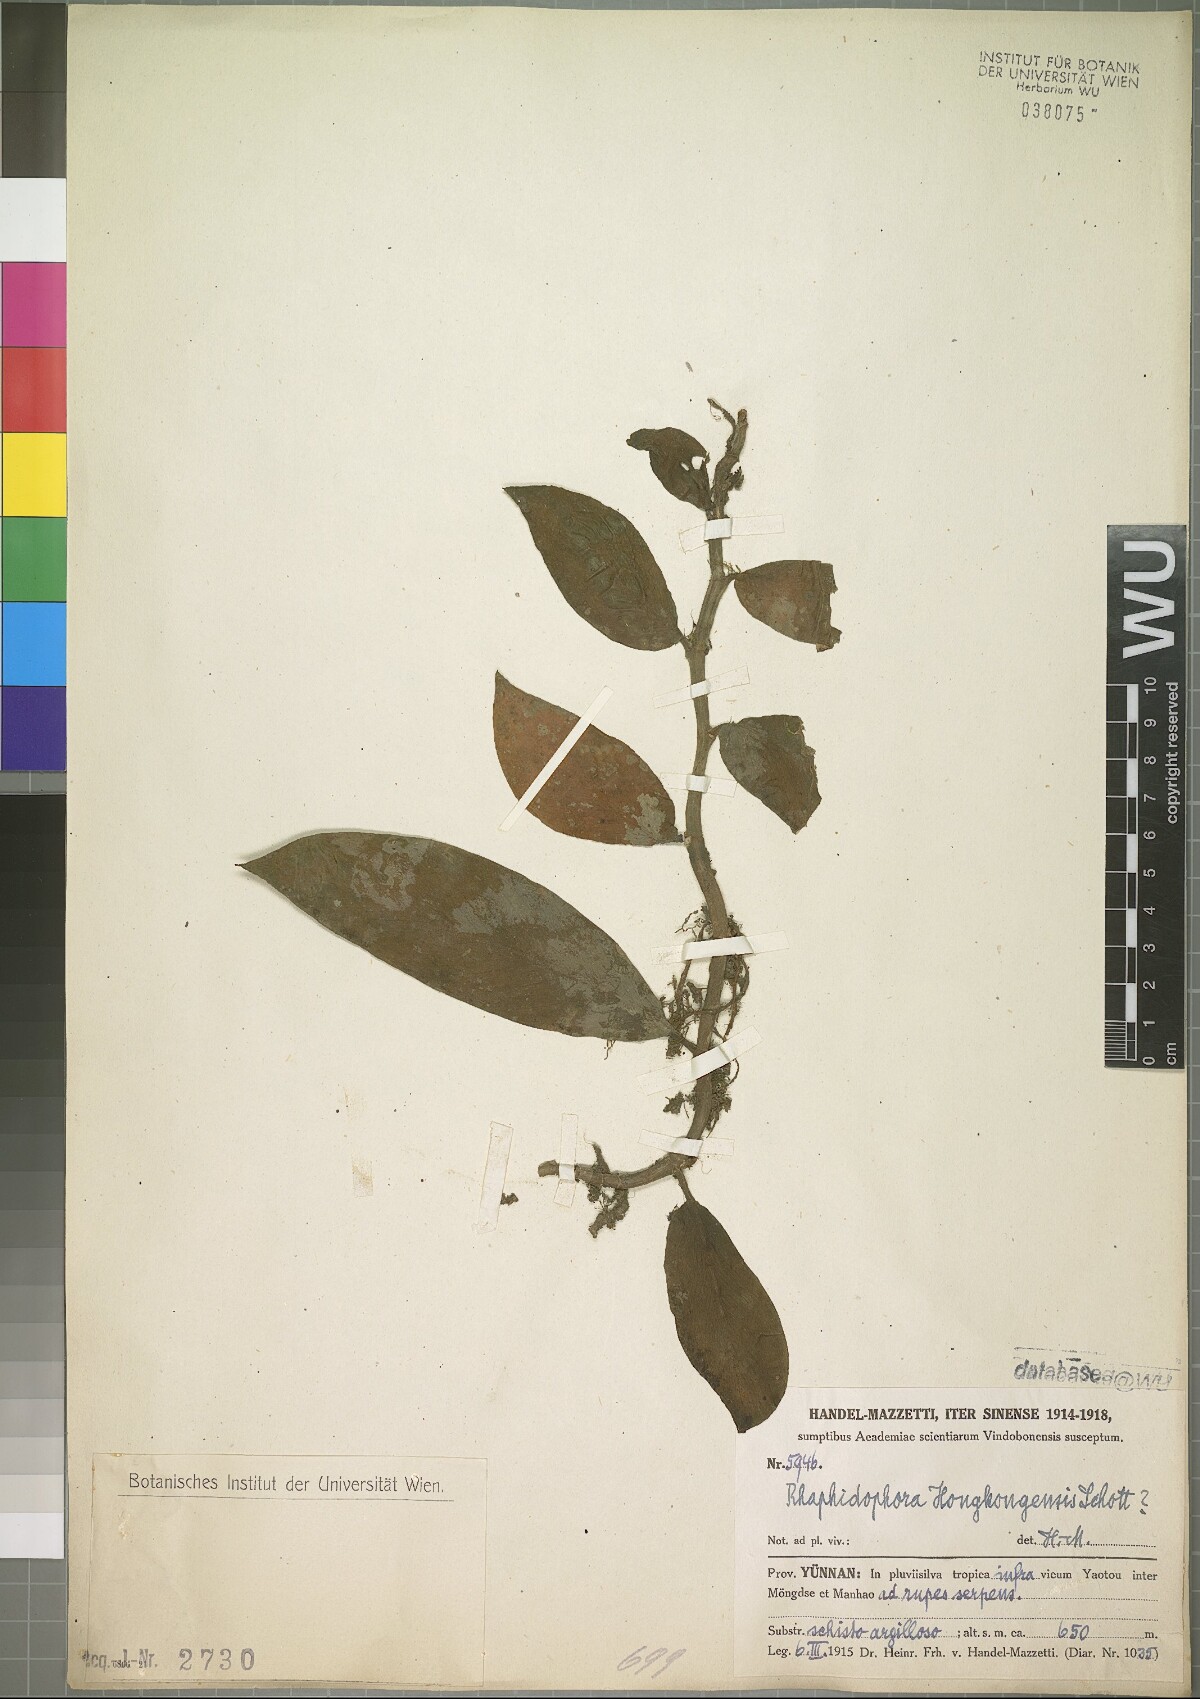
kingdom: Plantae
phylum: Tracheophyta
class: Liliopsida
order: Alismatales
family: Araceae
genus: Rhaphidophora
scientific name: Rhaphidophora hongkongensis
